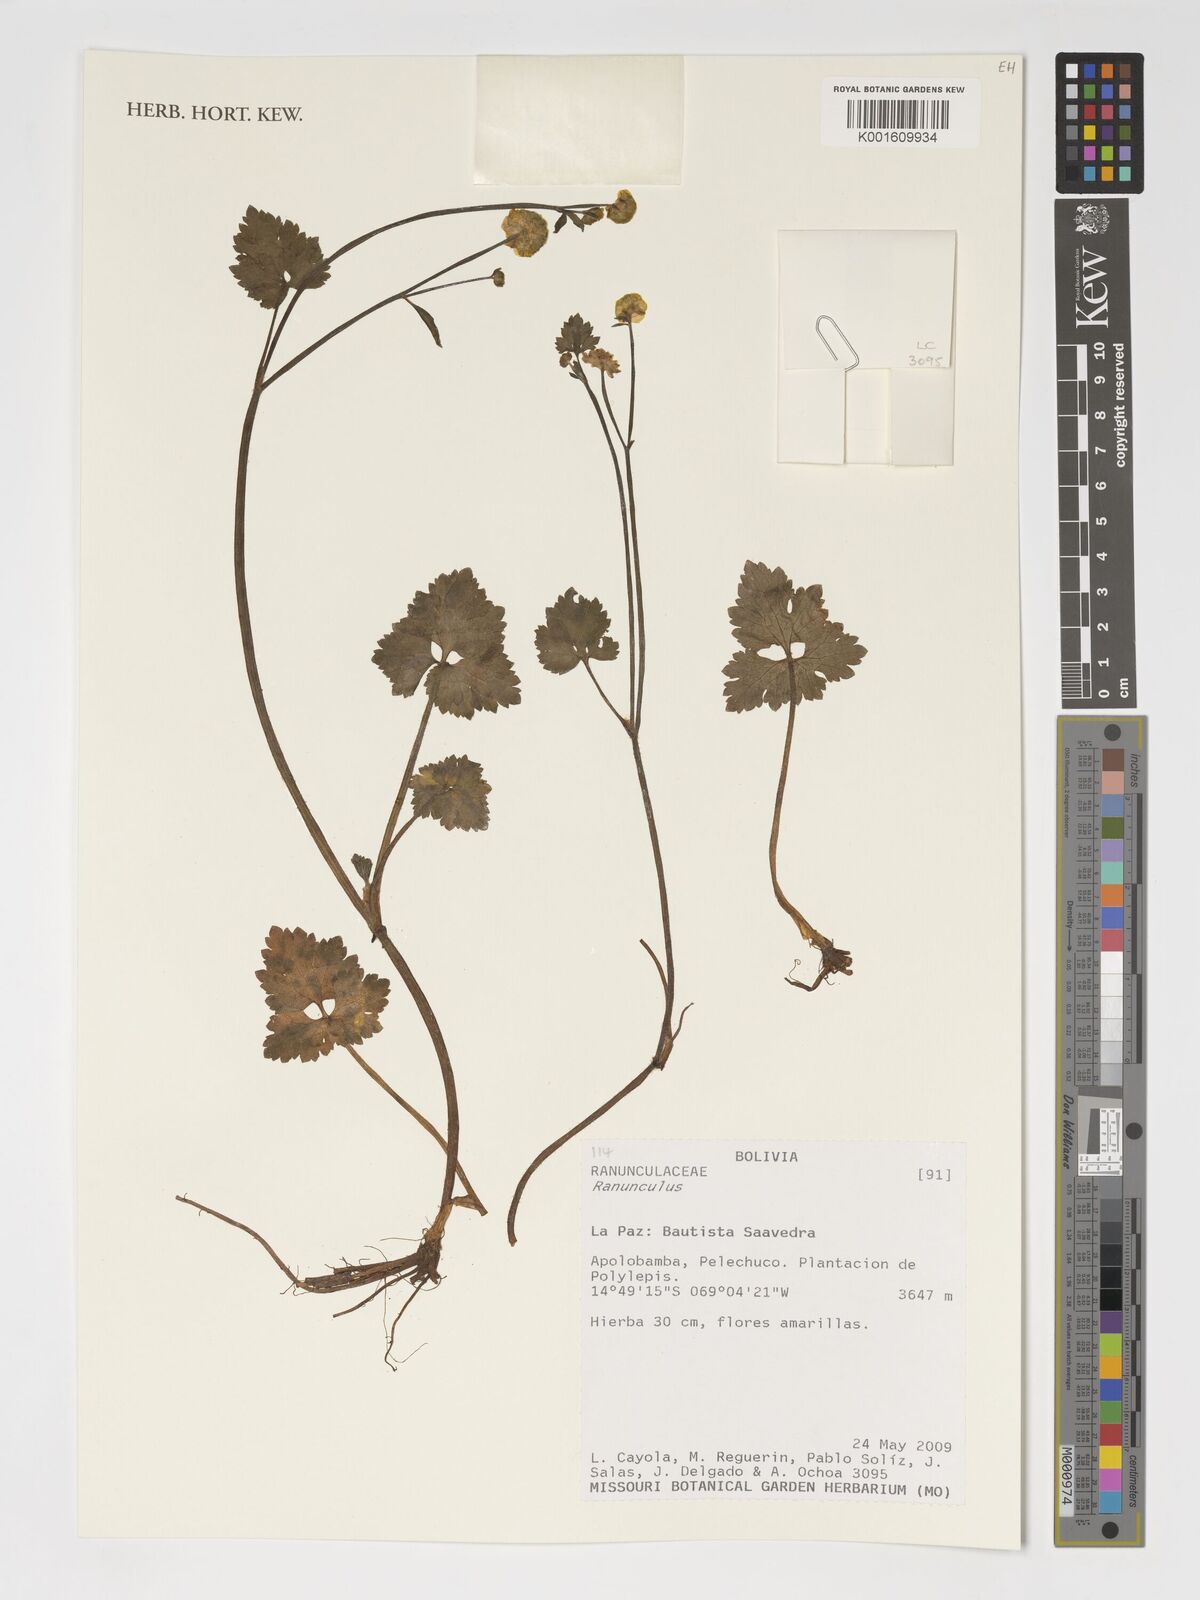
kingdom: Plantae
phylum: Tracheophyta
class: Magnoliopsida
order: Ranunculales
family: Ranunculaceae
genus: Ranunculus
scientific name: Ranunculus
